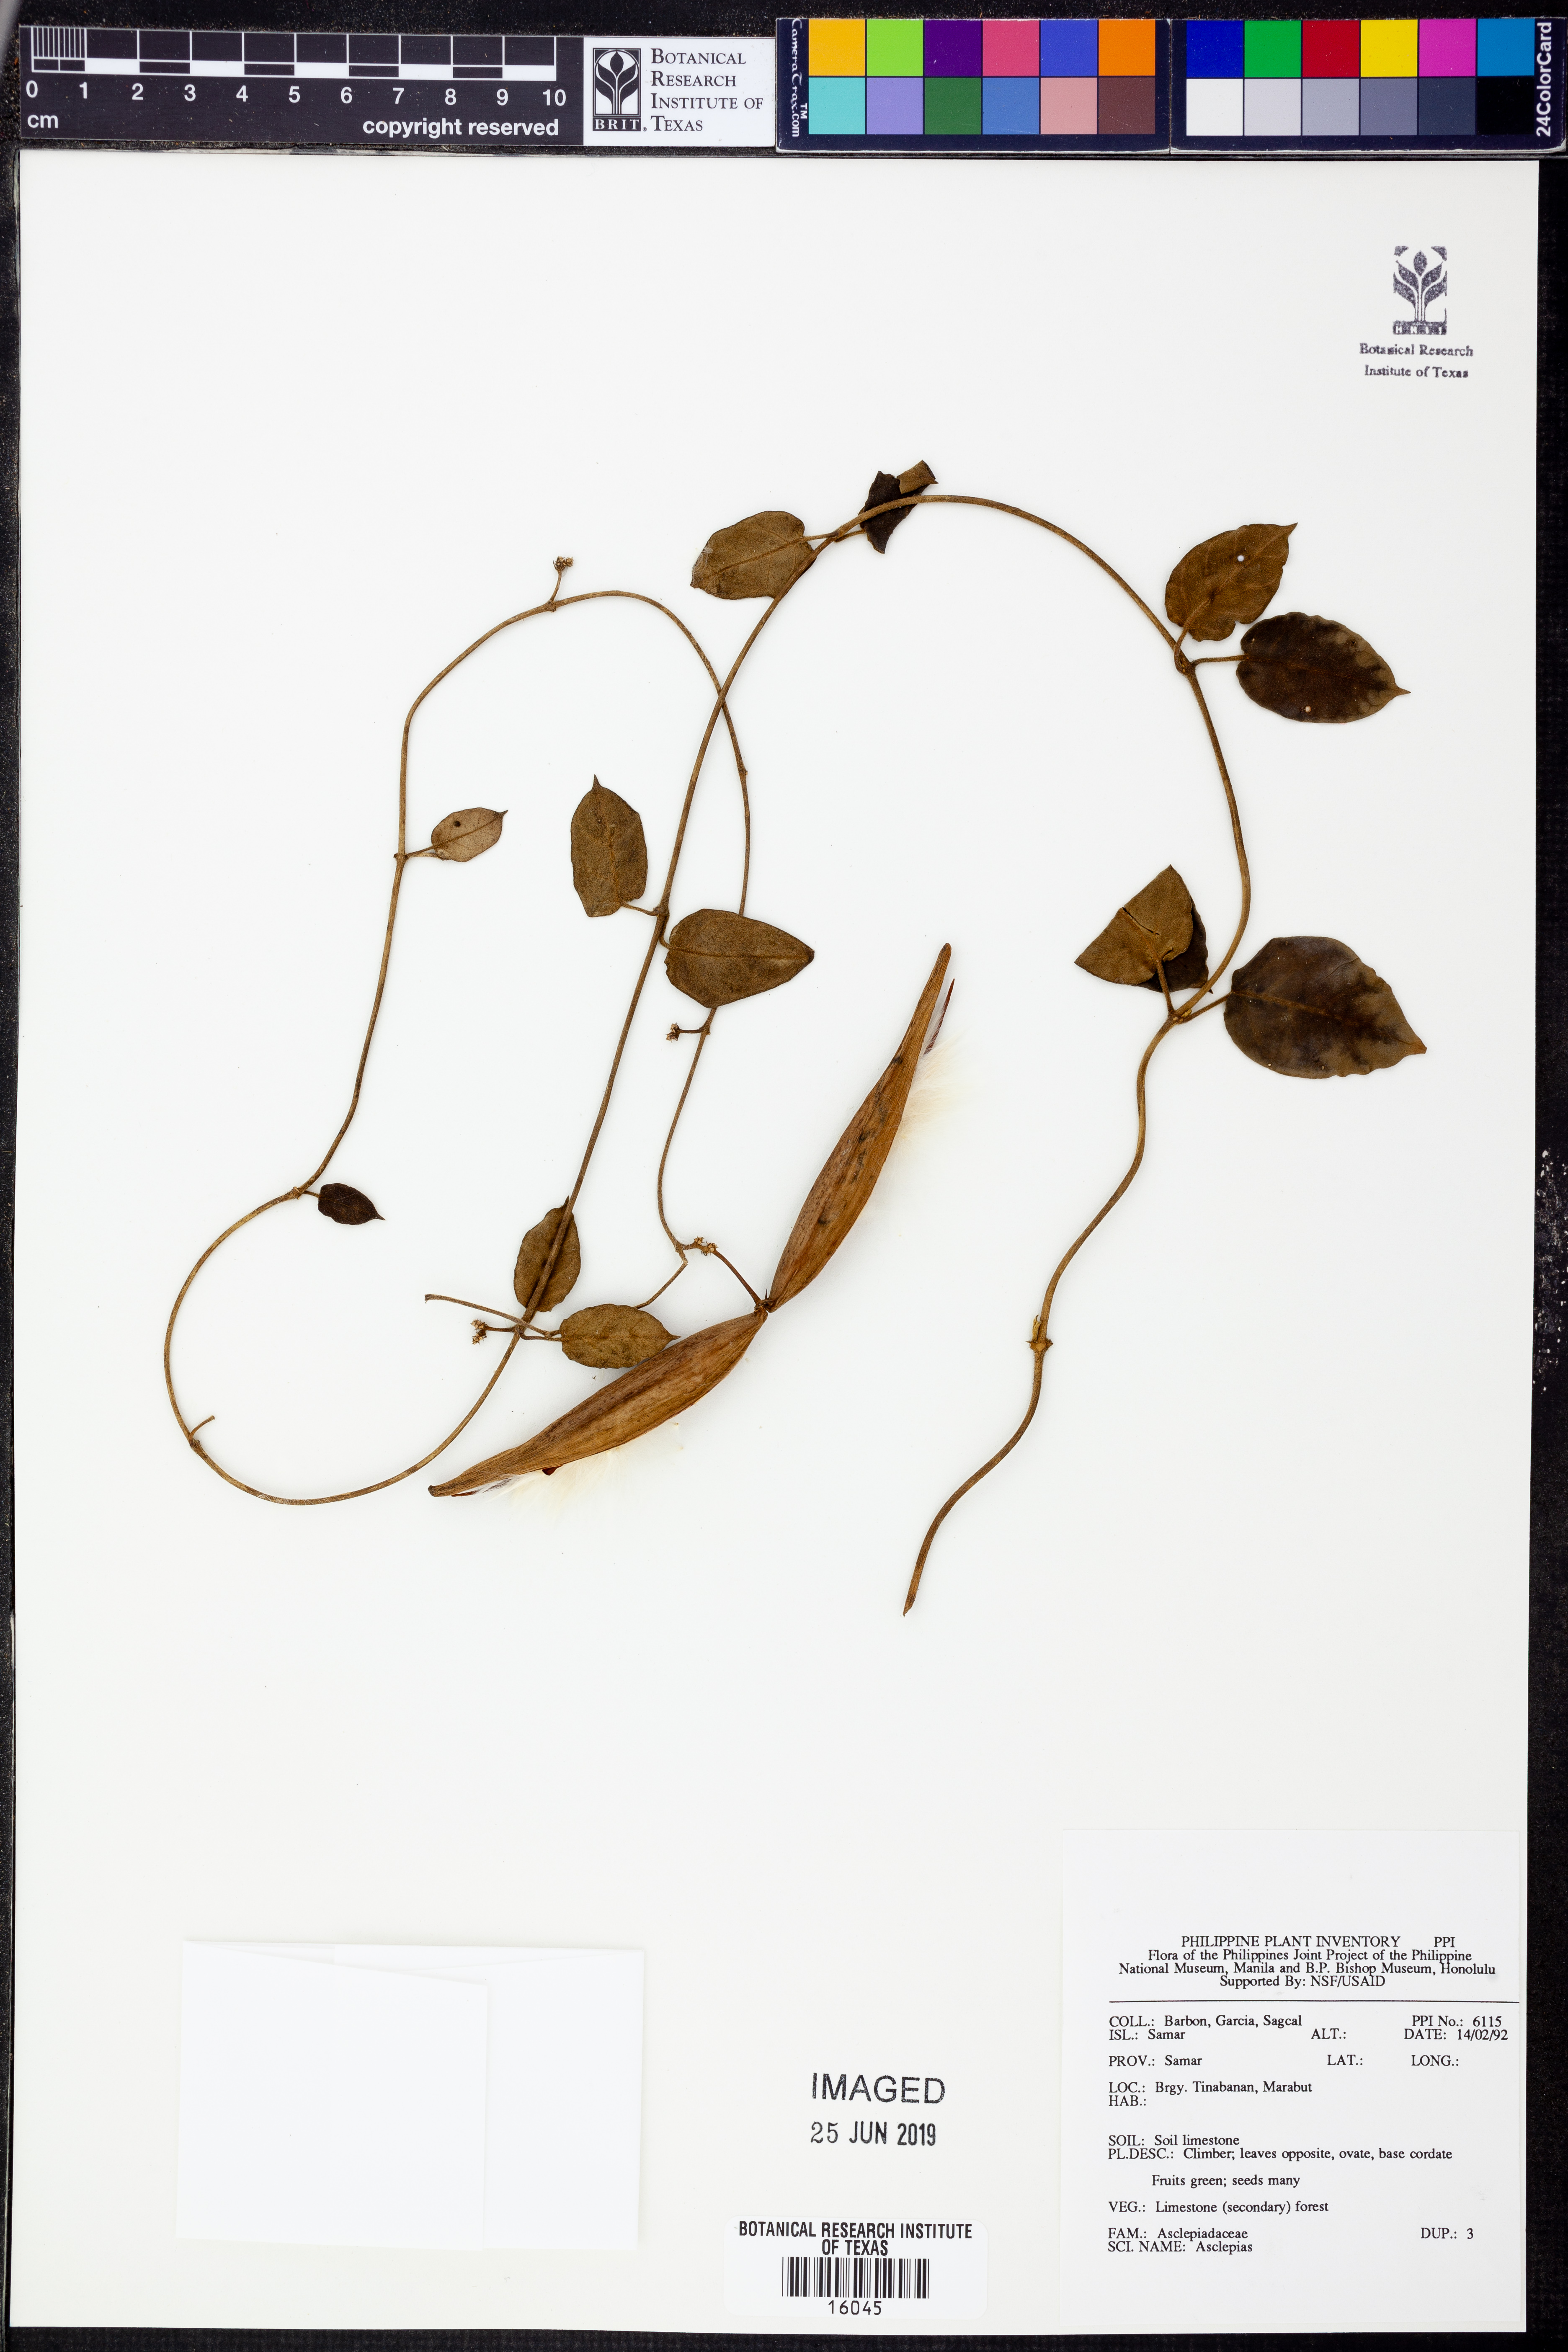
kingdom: Plantae
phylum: Tracheophyta
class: Magnoliopsida
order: Gentianales
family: Apocynaceae
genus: Asclepias
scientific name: Asclepias
